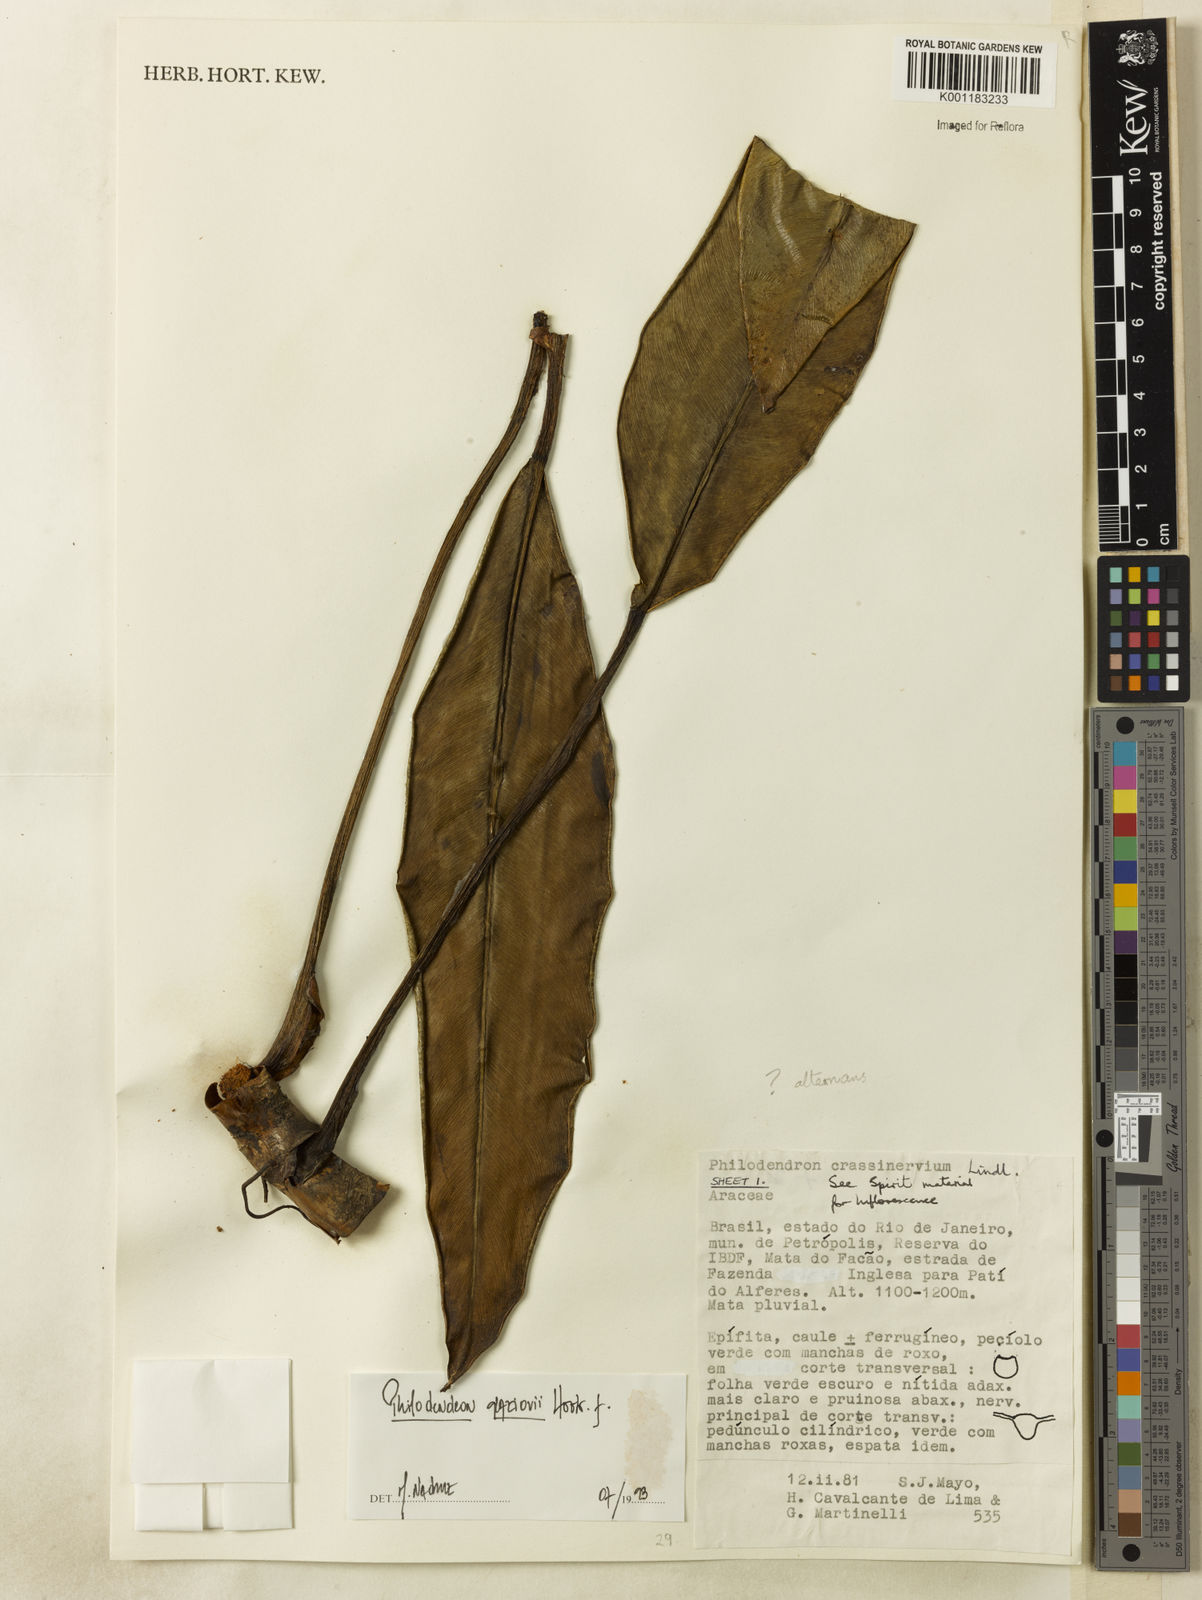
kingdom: Plantae
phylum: Tracheophyta
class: Liliopsida
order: Alismatales
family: Araceae
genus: Philodendron
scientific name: Philodendron glaziovii
